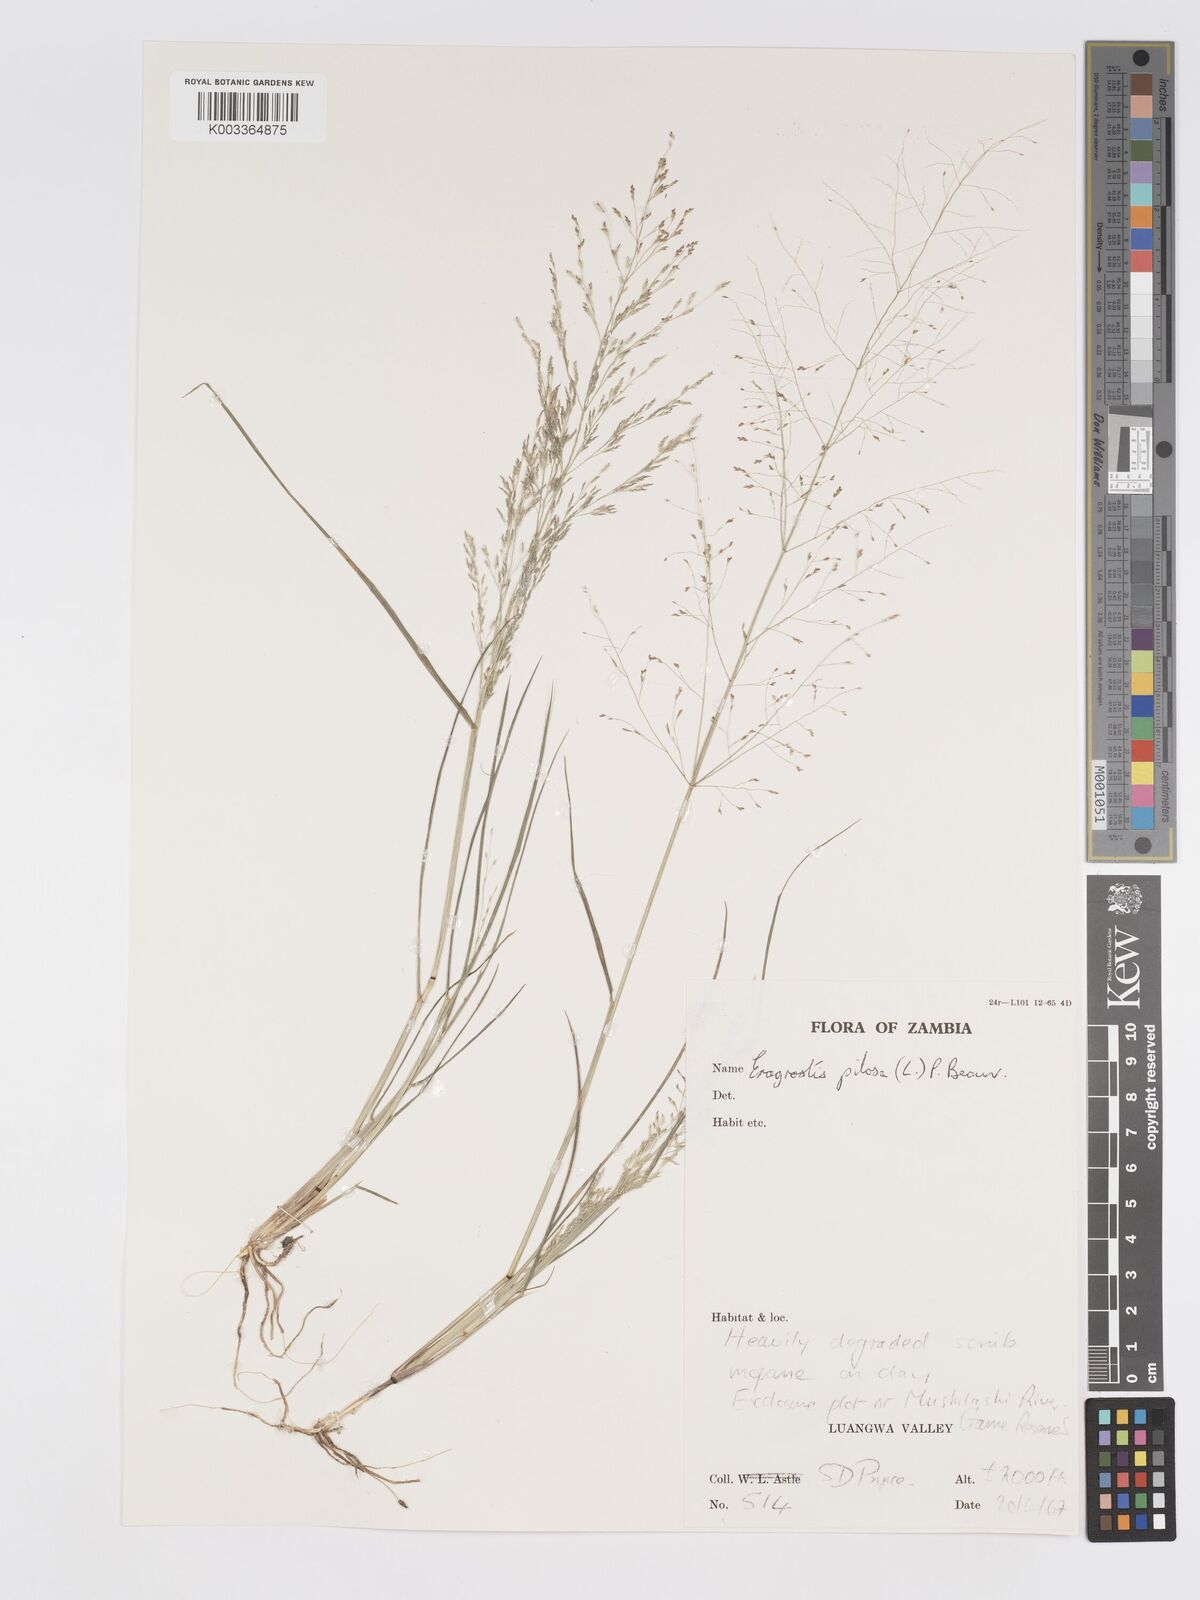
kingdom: Plantae
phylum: Tracheophyta
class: Liliopsida
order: Poales
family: Poaceae
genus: Eragrostis
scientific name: Eragrostis pilosa
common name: Indian lovegrass
